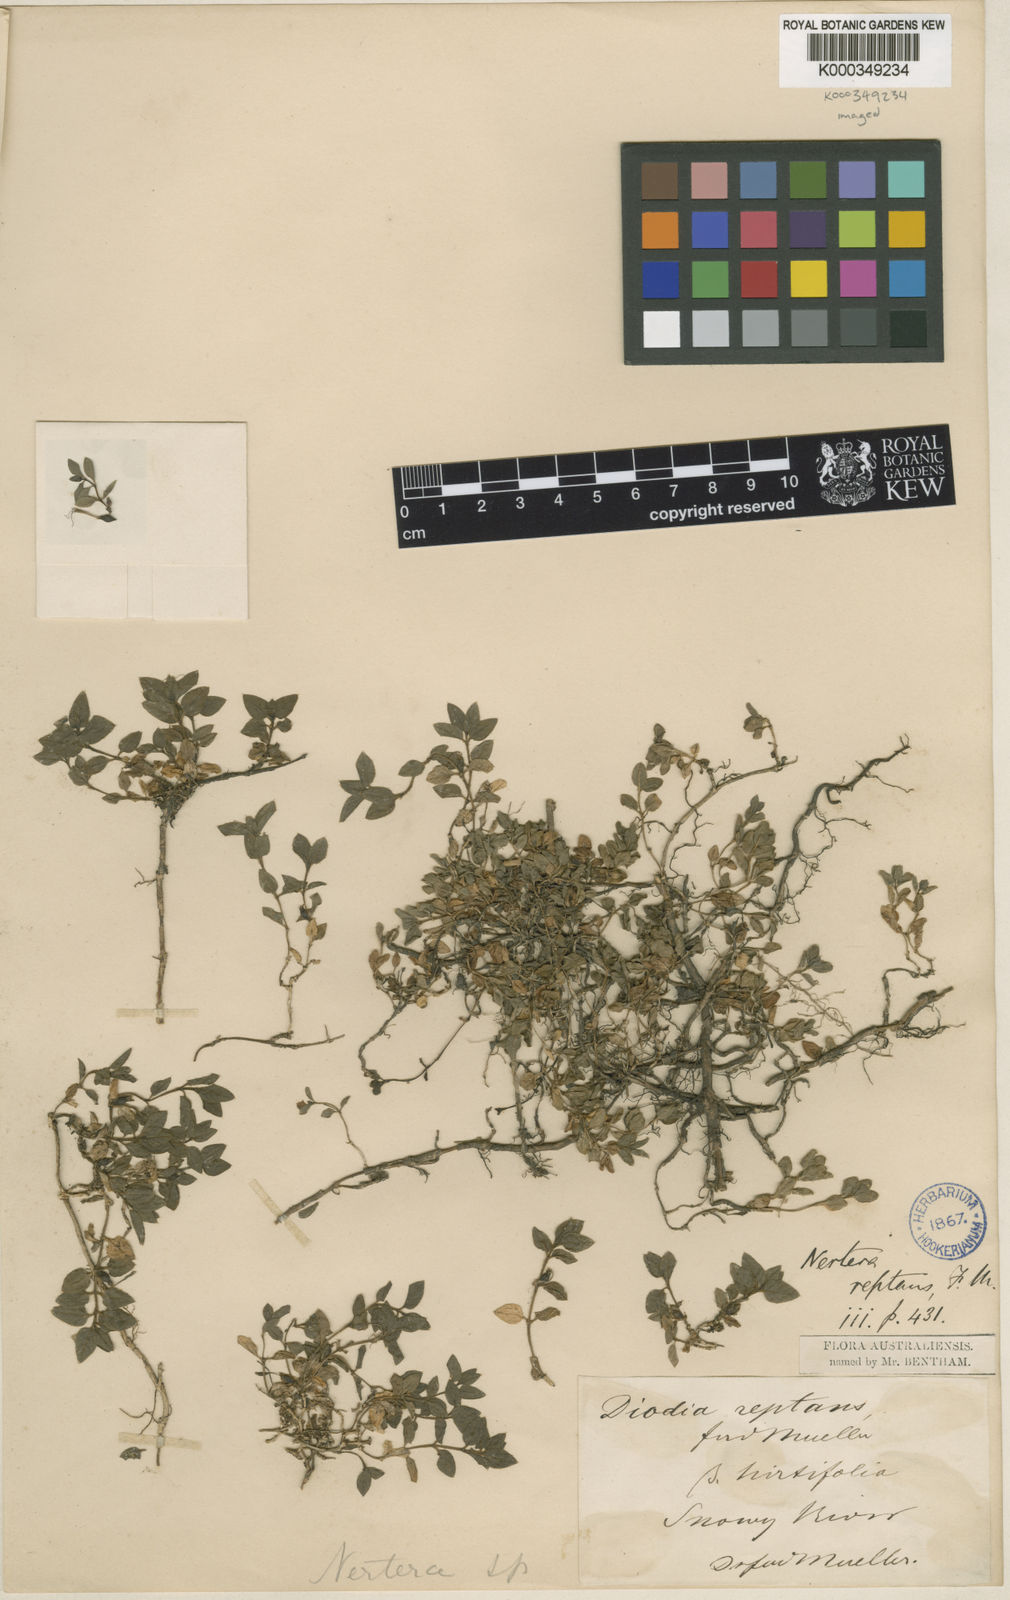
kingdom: Plantae
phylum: Tracheophyta
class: Magnoliopsida
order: Gentianales
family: Rubiaceae
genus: Leptostigma
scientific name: Leptostigma reptans
